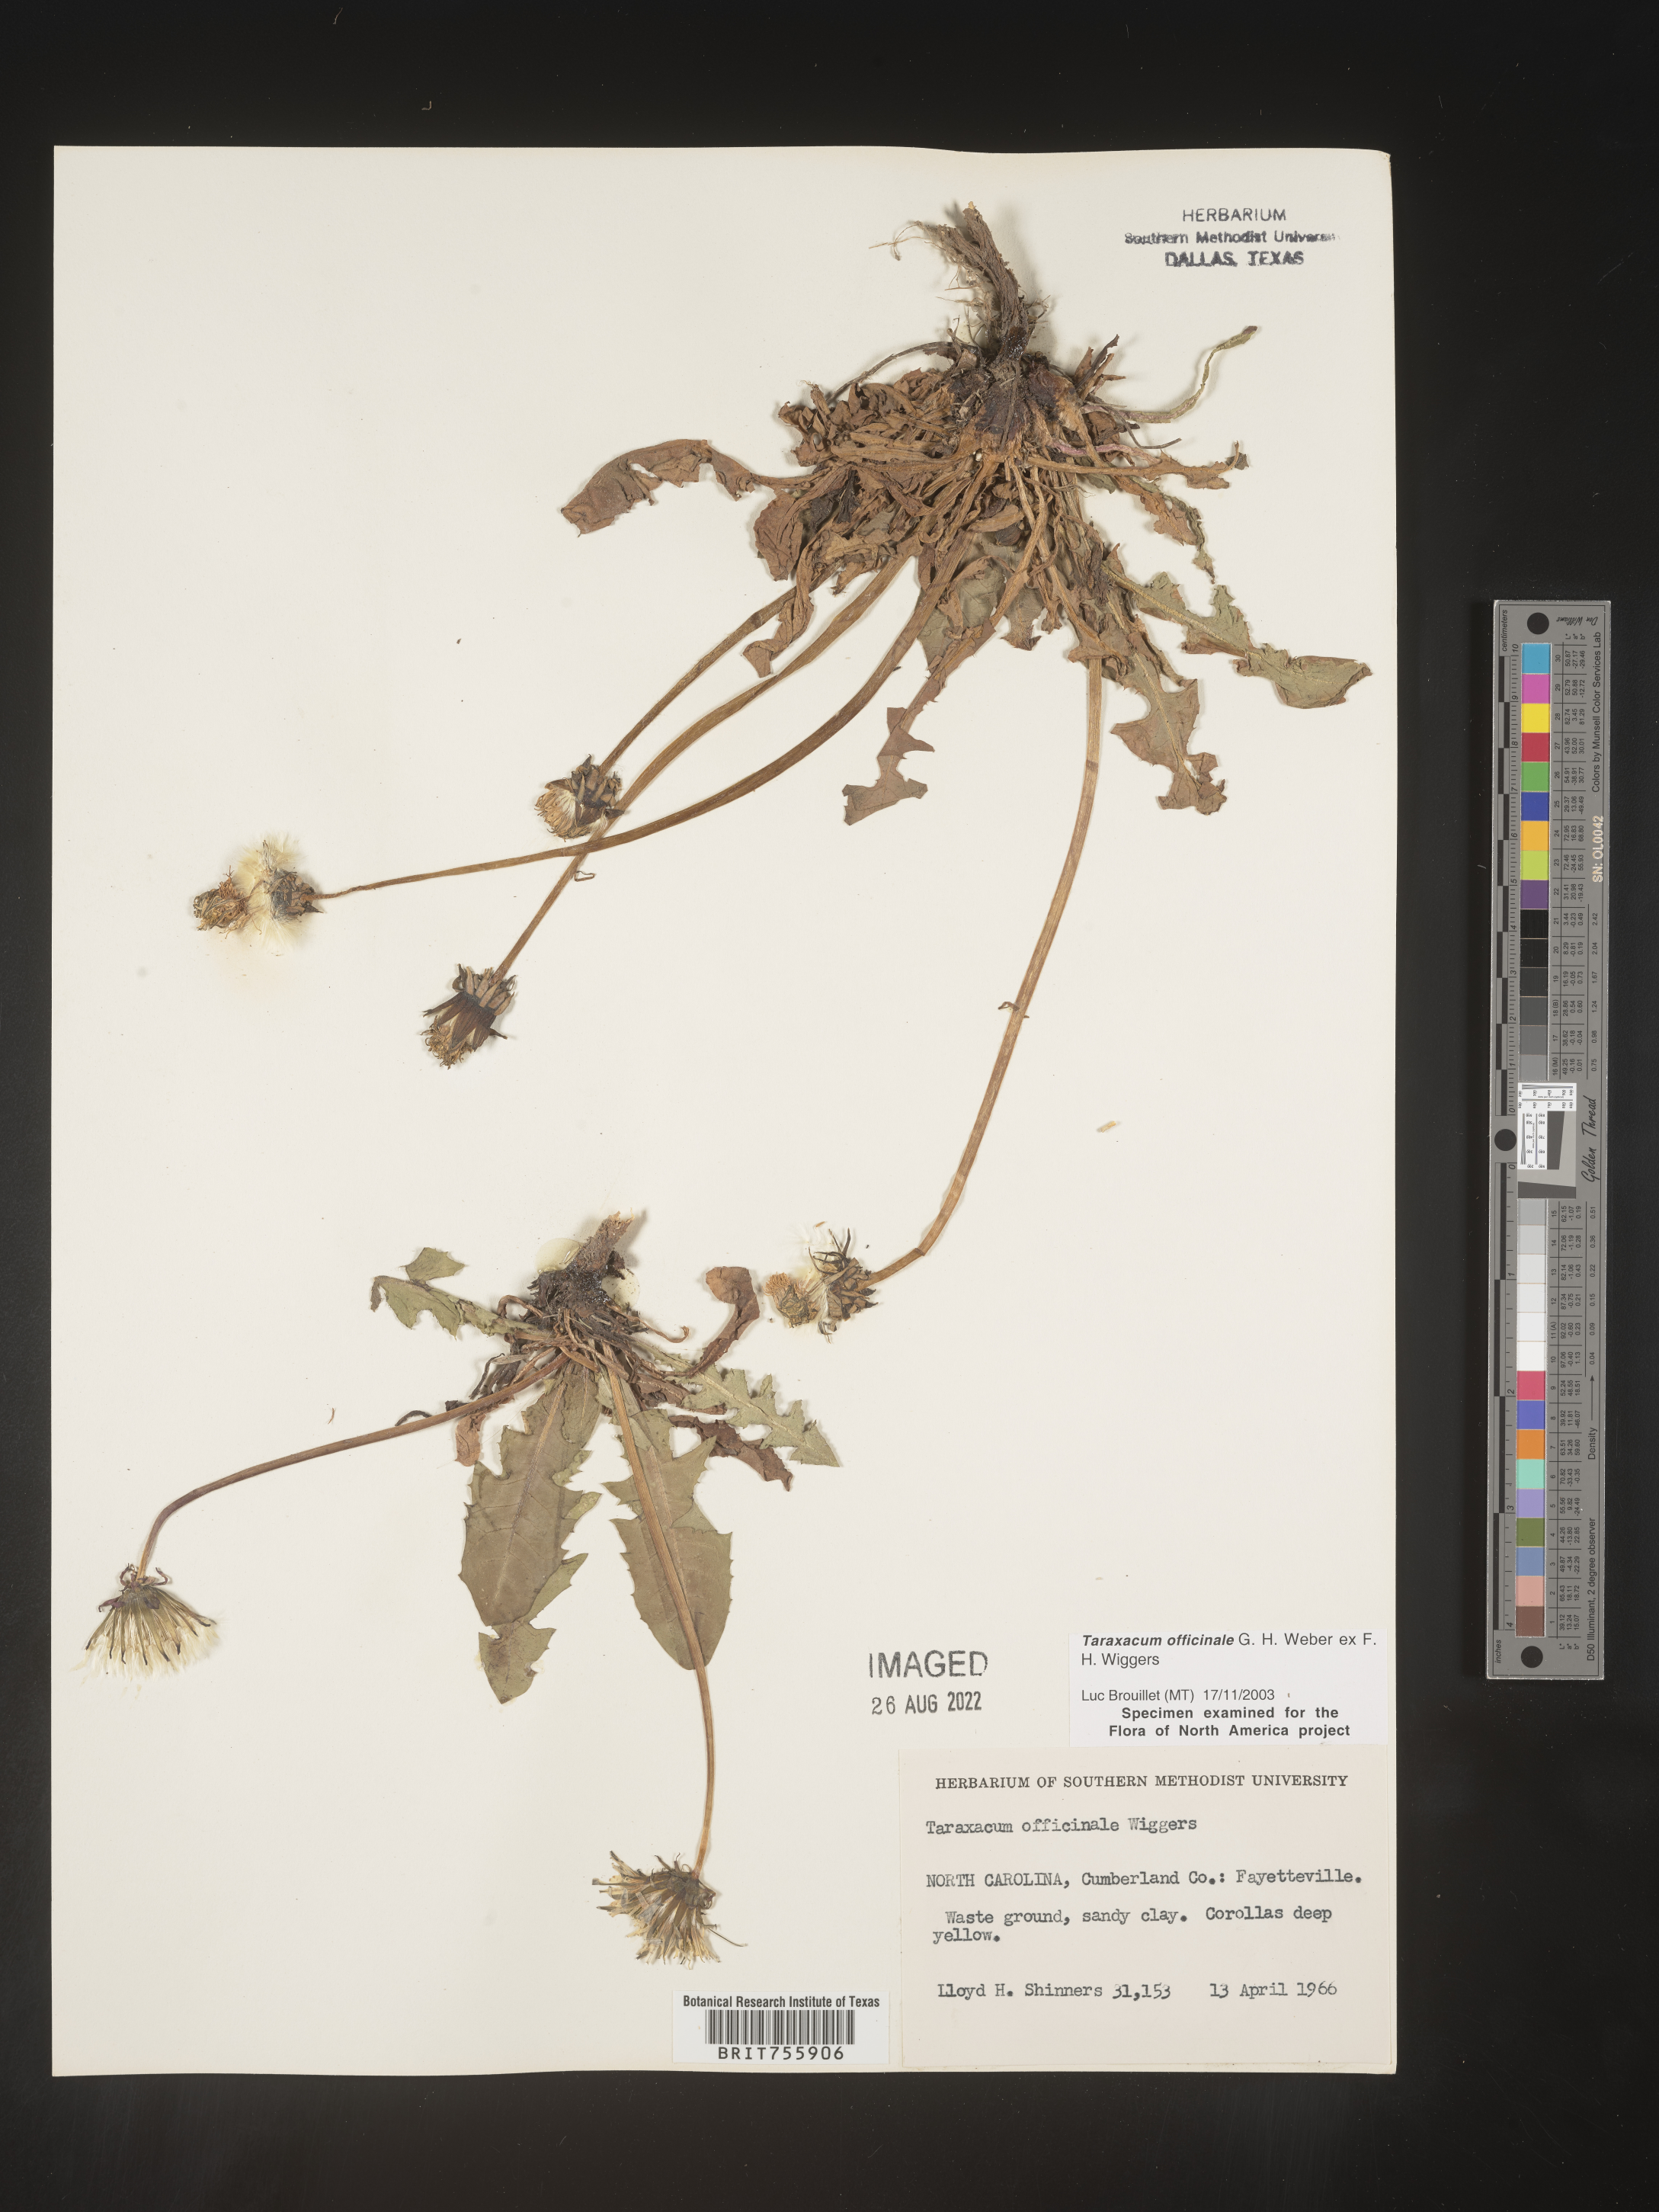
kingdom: Plantae
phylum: Tracheophyta
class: Magnoliopsida
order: Asterales
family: Asteraceae
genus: Taraxacum
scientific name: Taraxacum officinale
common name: Common dandelion
